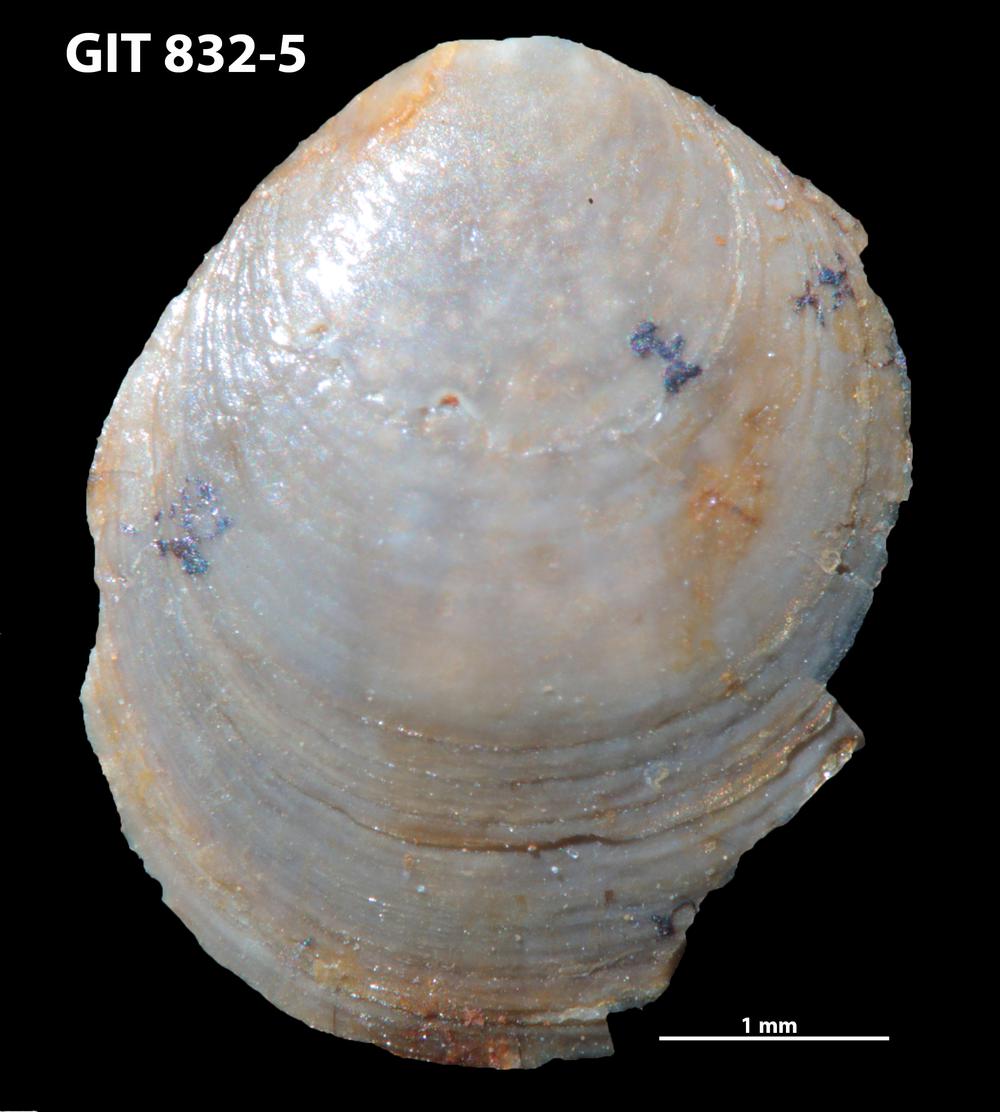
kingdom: Animalia
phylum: Brachiopoda
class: Lingulata
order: Lingulida
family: Obolidae
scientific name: Obolidae
